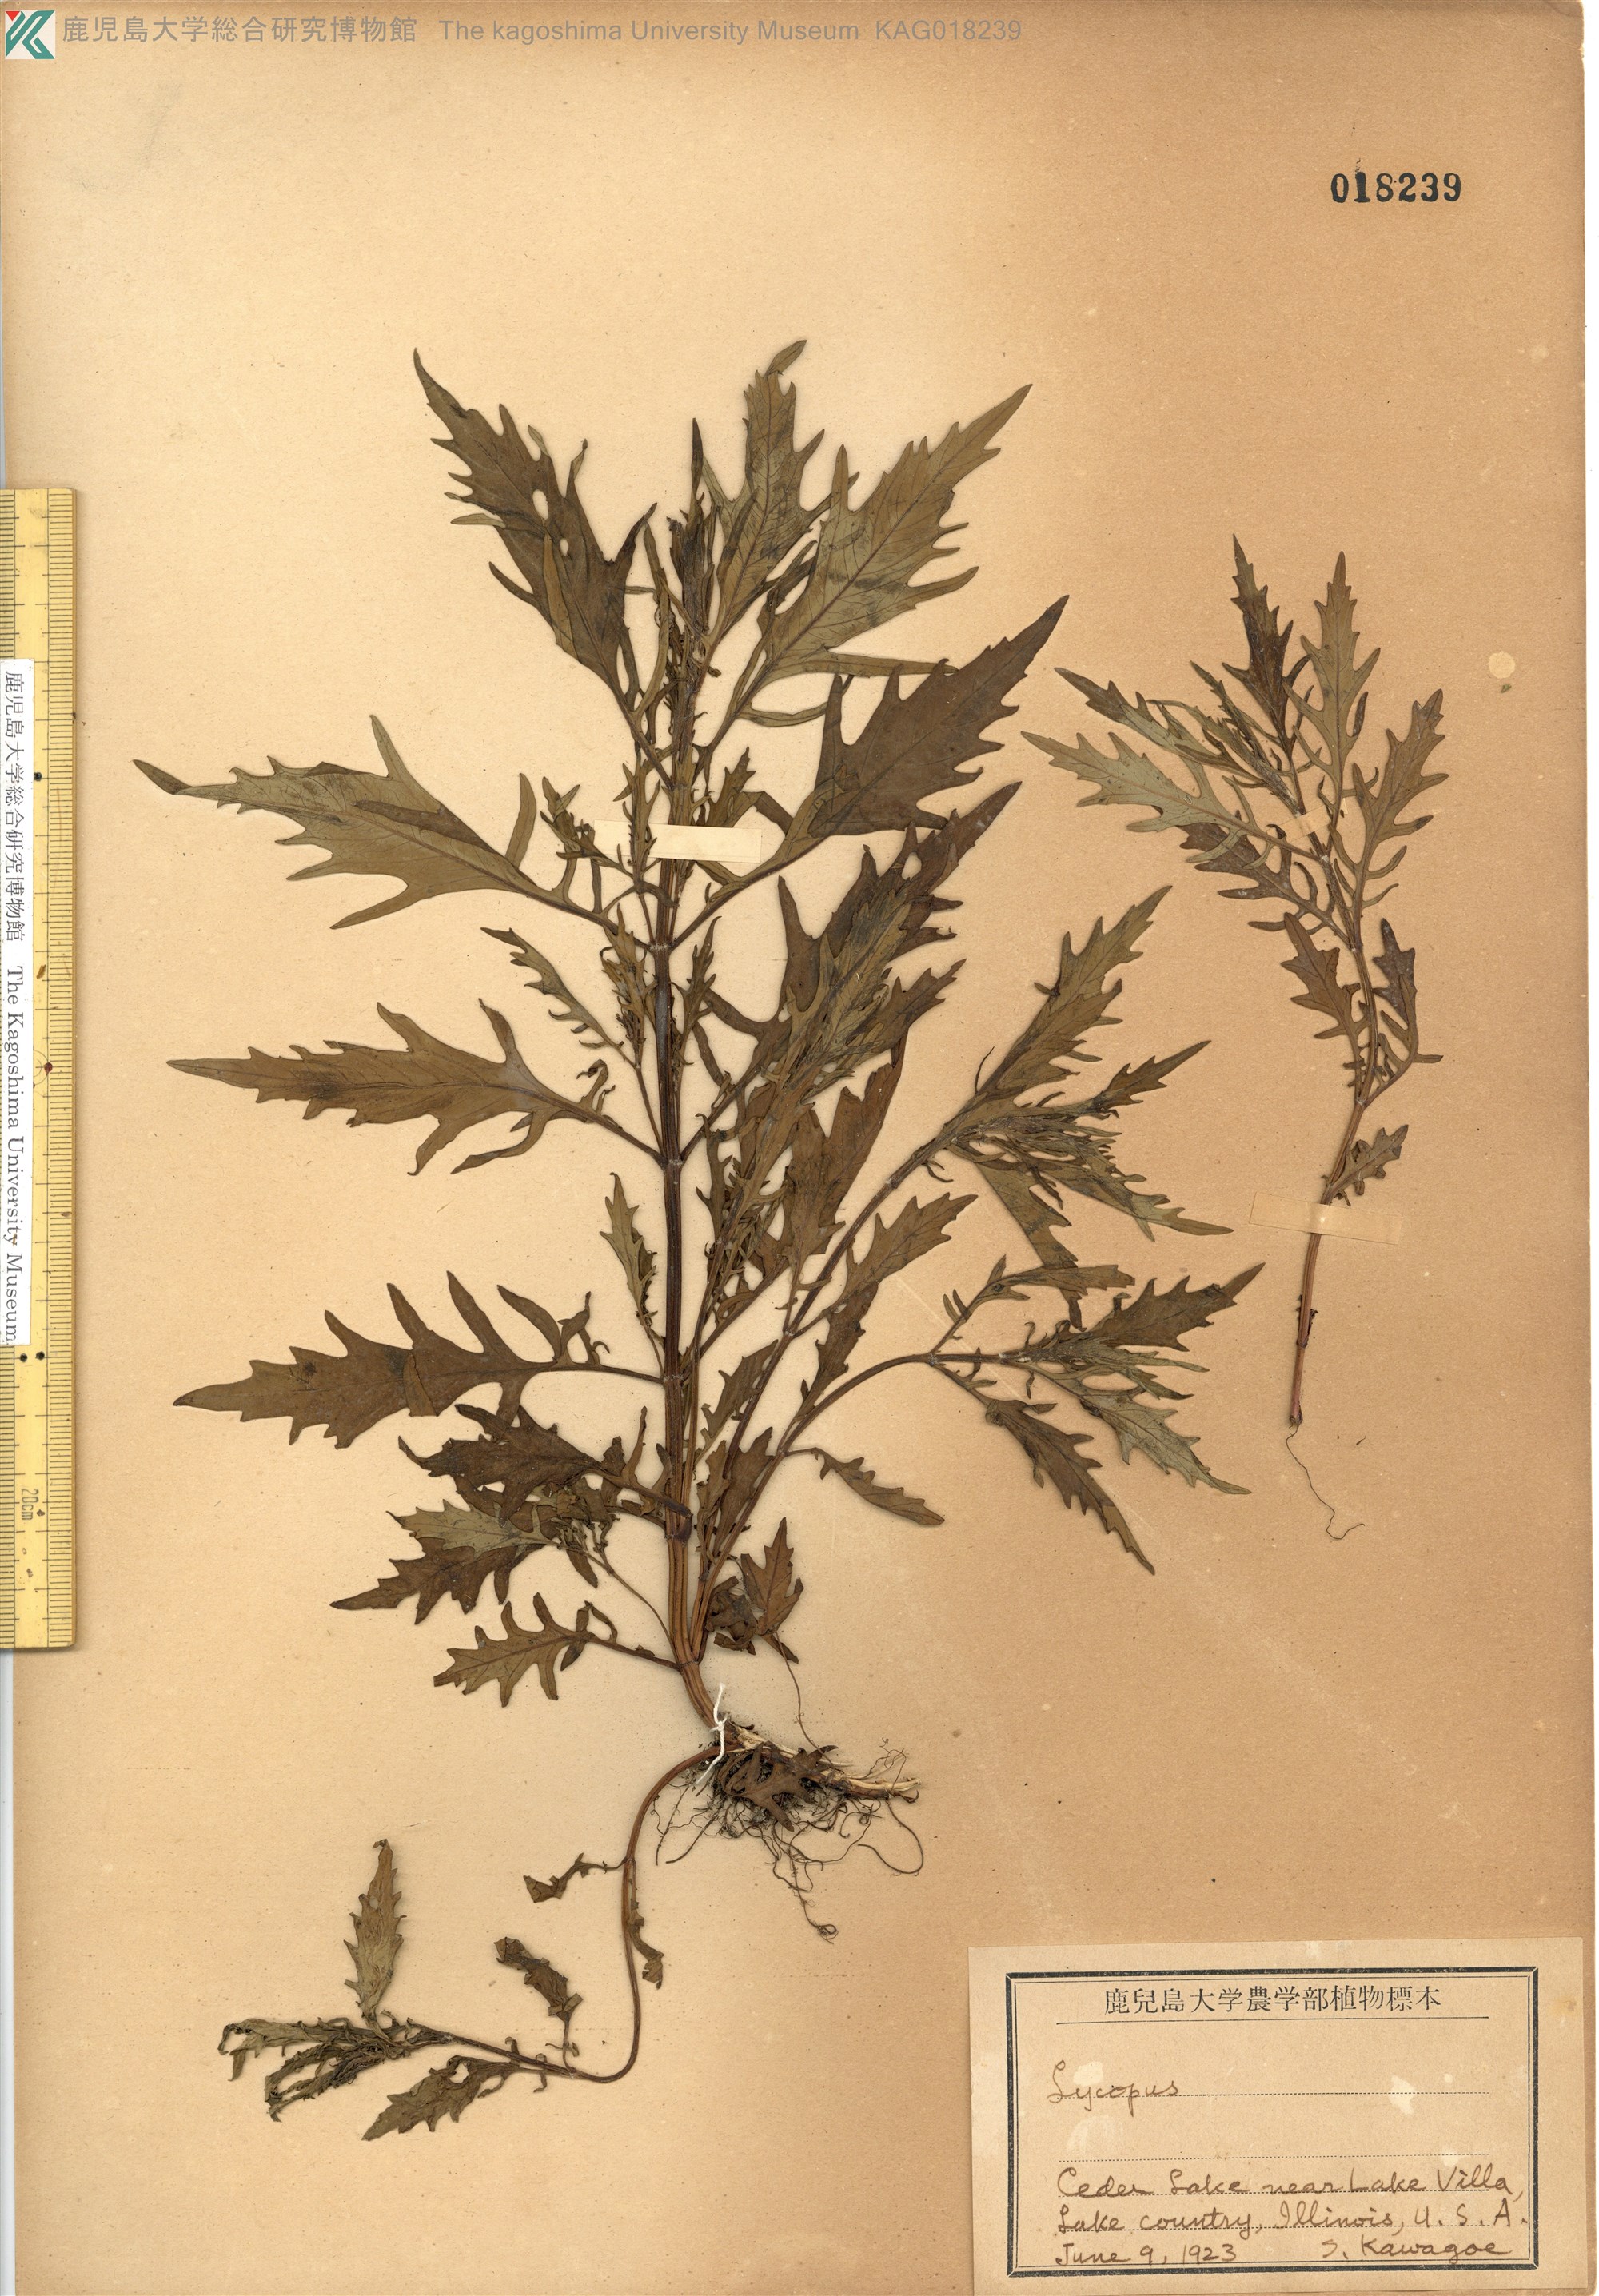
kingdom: Plantae
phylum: Tracheophyta
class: Magnoliopsida
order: Lamiales
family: Lamiaceae
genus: Lycopus
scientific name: Lycopus americanus
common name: American bugleweed
